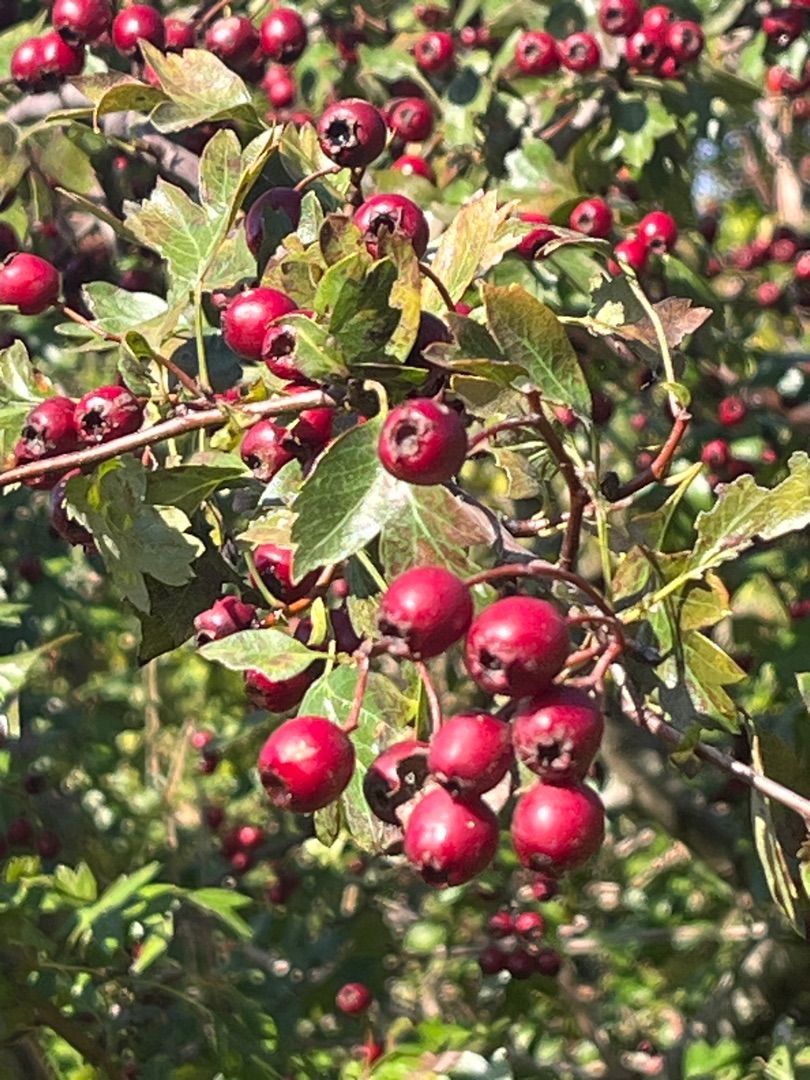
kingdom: Plantae
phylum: Tracheophyta
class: Magnoliopsida
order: Rosales
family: Rosaceae
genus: Crataegus
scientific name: Crataegus monogyna
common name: Engriflet hvidtjørn
